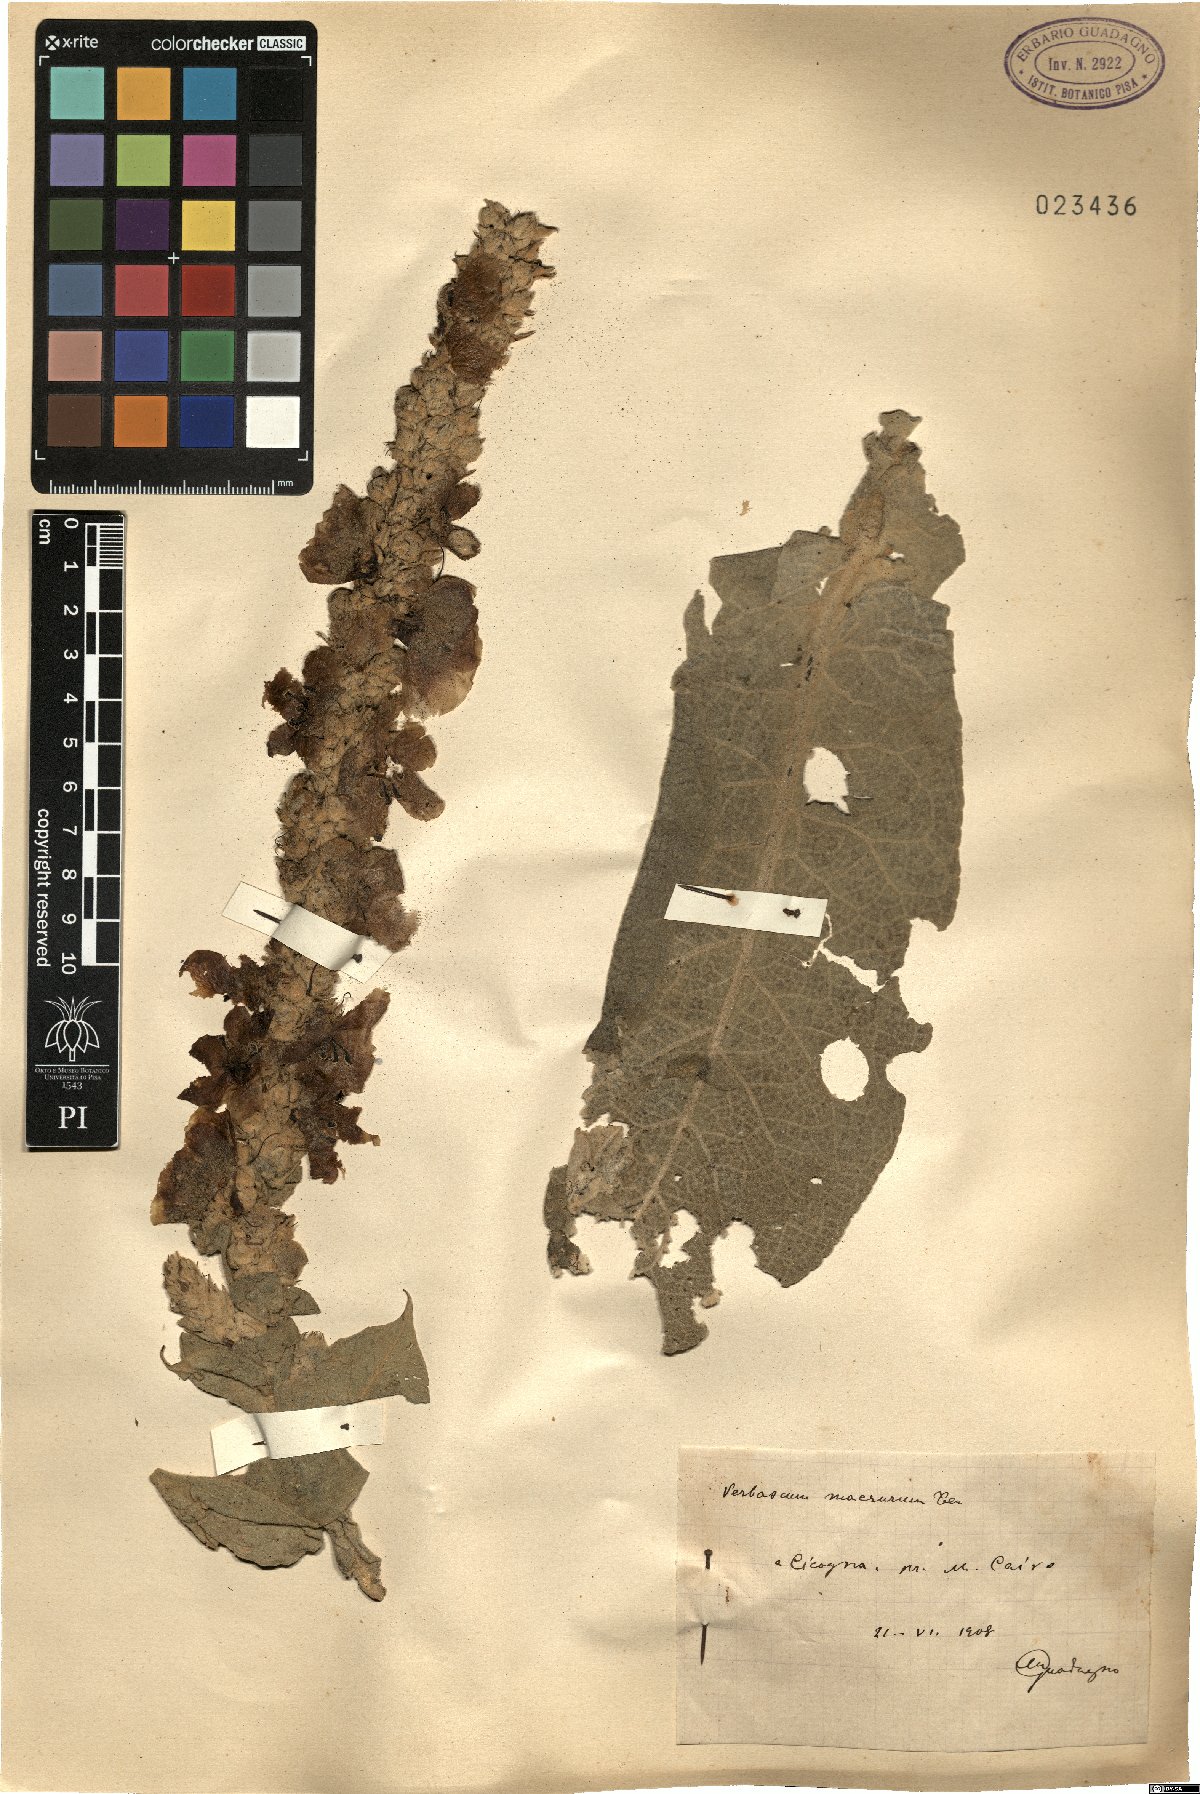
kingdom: Plantae
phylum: Tracheophyta
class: Magnoliopsida
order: Lamiales
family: Scrophulariaceae
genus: Verbascum
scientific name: Verbascum macrurum
